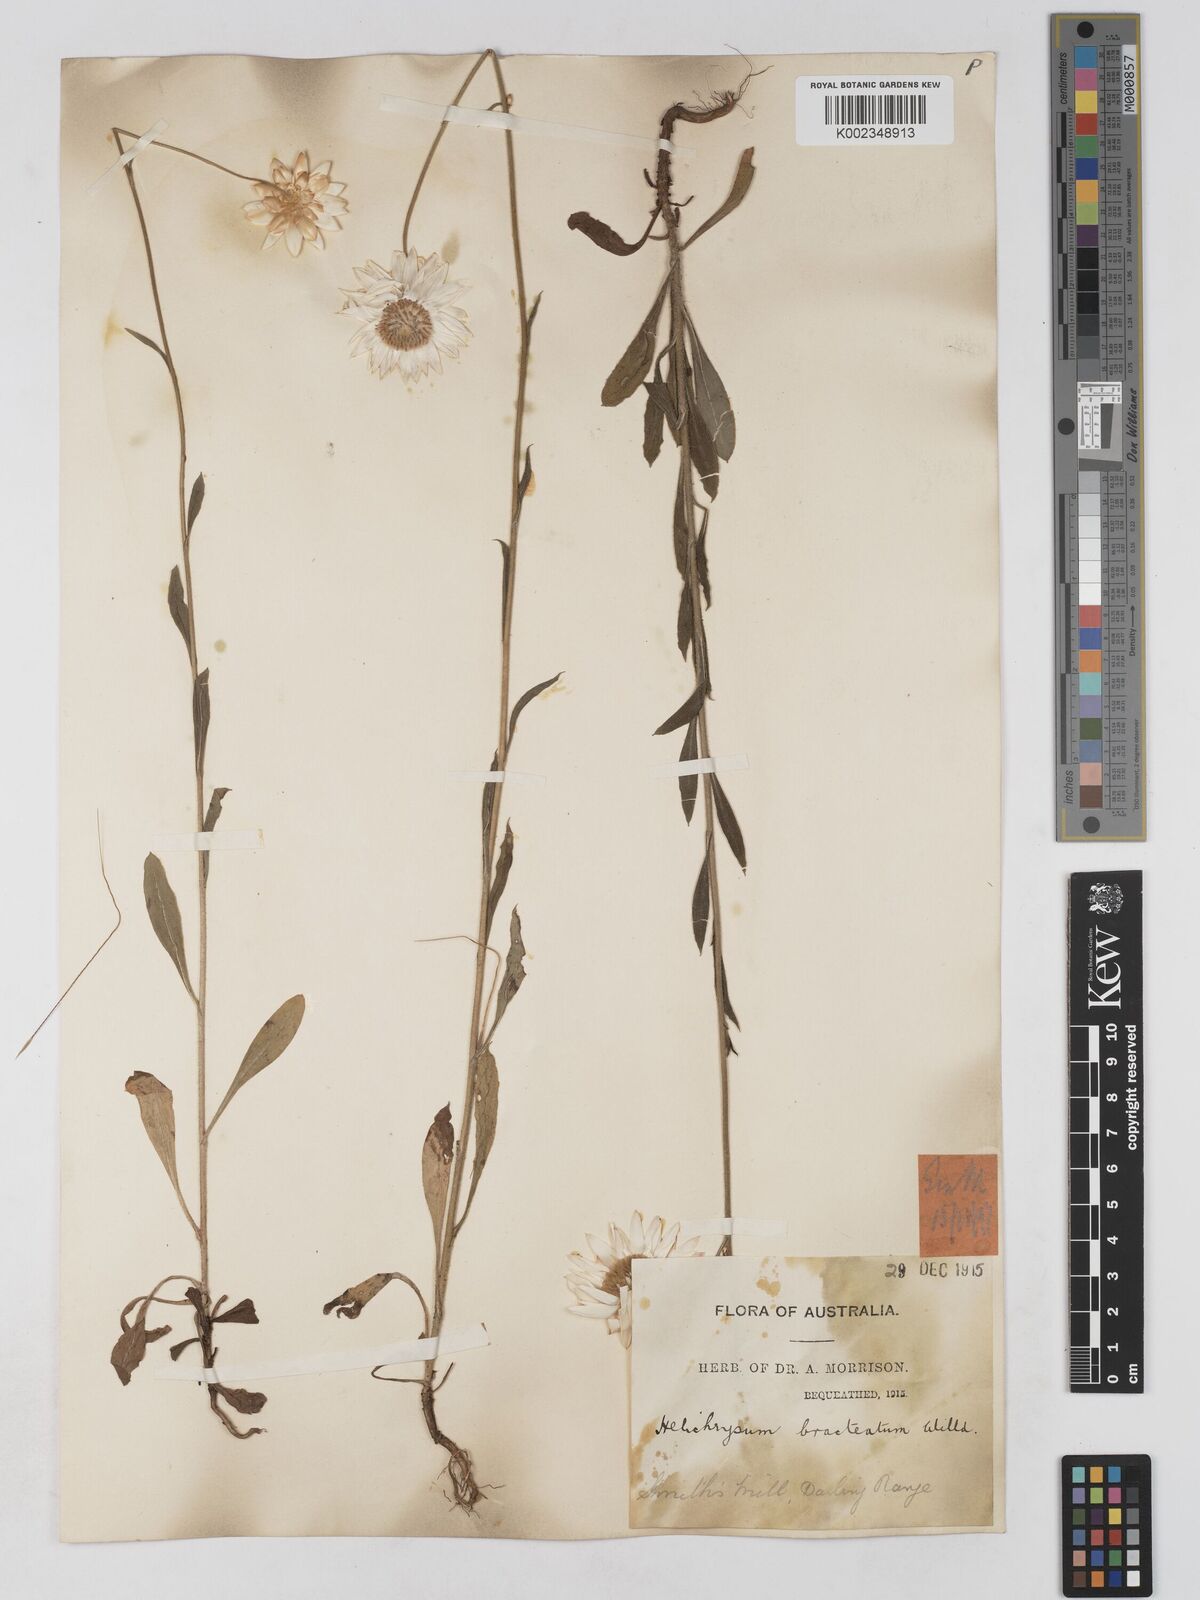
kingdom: Plantae
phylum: Tracheophyta
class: Magnoliopsida
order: Asterales
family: Asteraceae
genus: Xerochrysum
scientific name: Xerochrysum bracteatum
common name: Bracted strawflower
